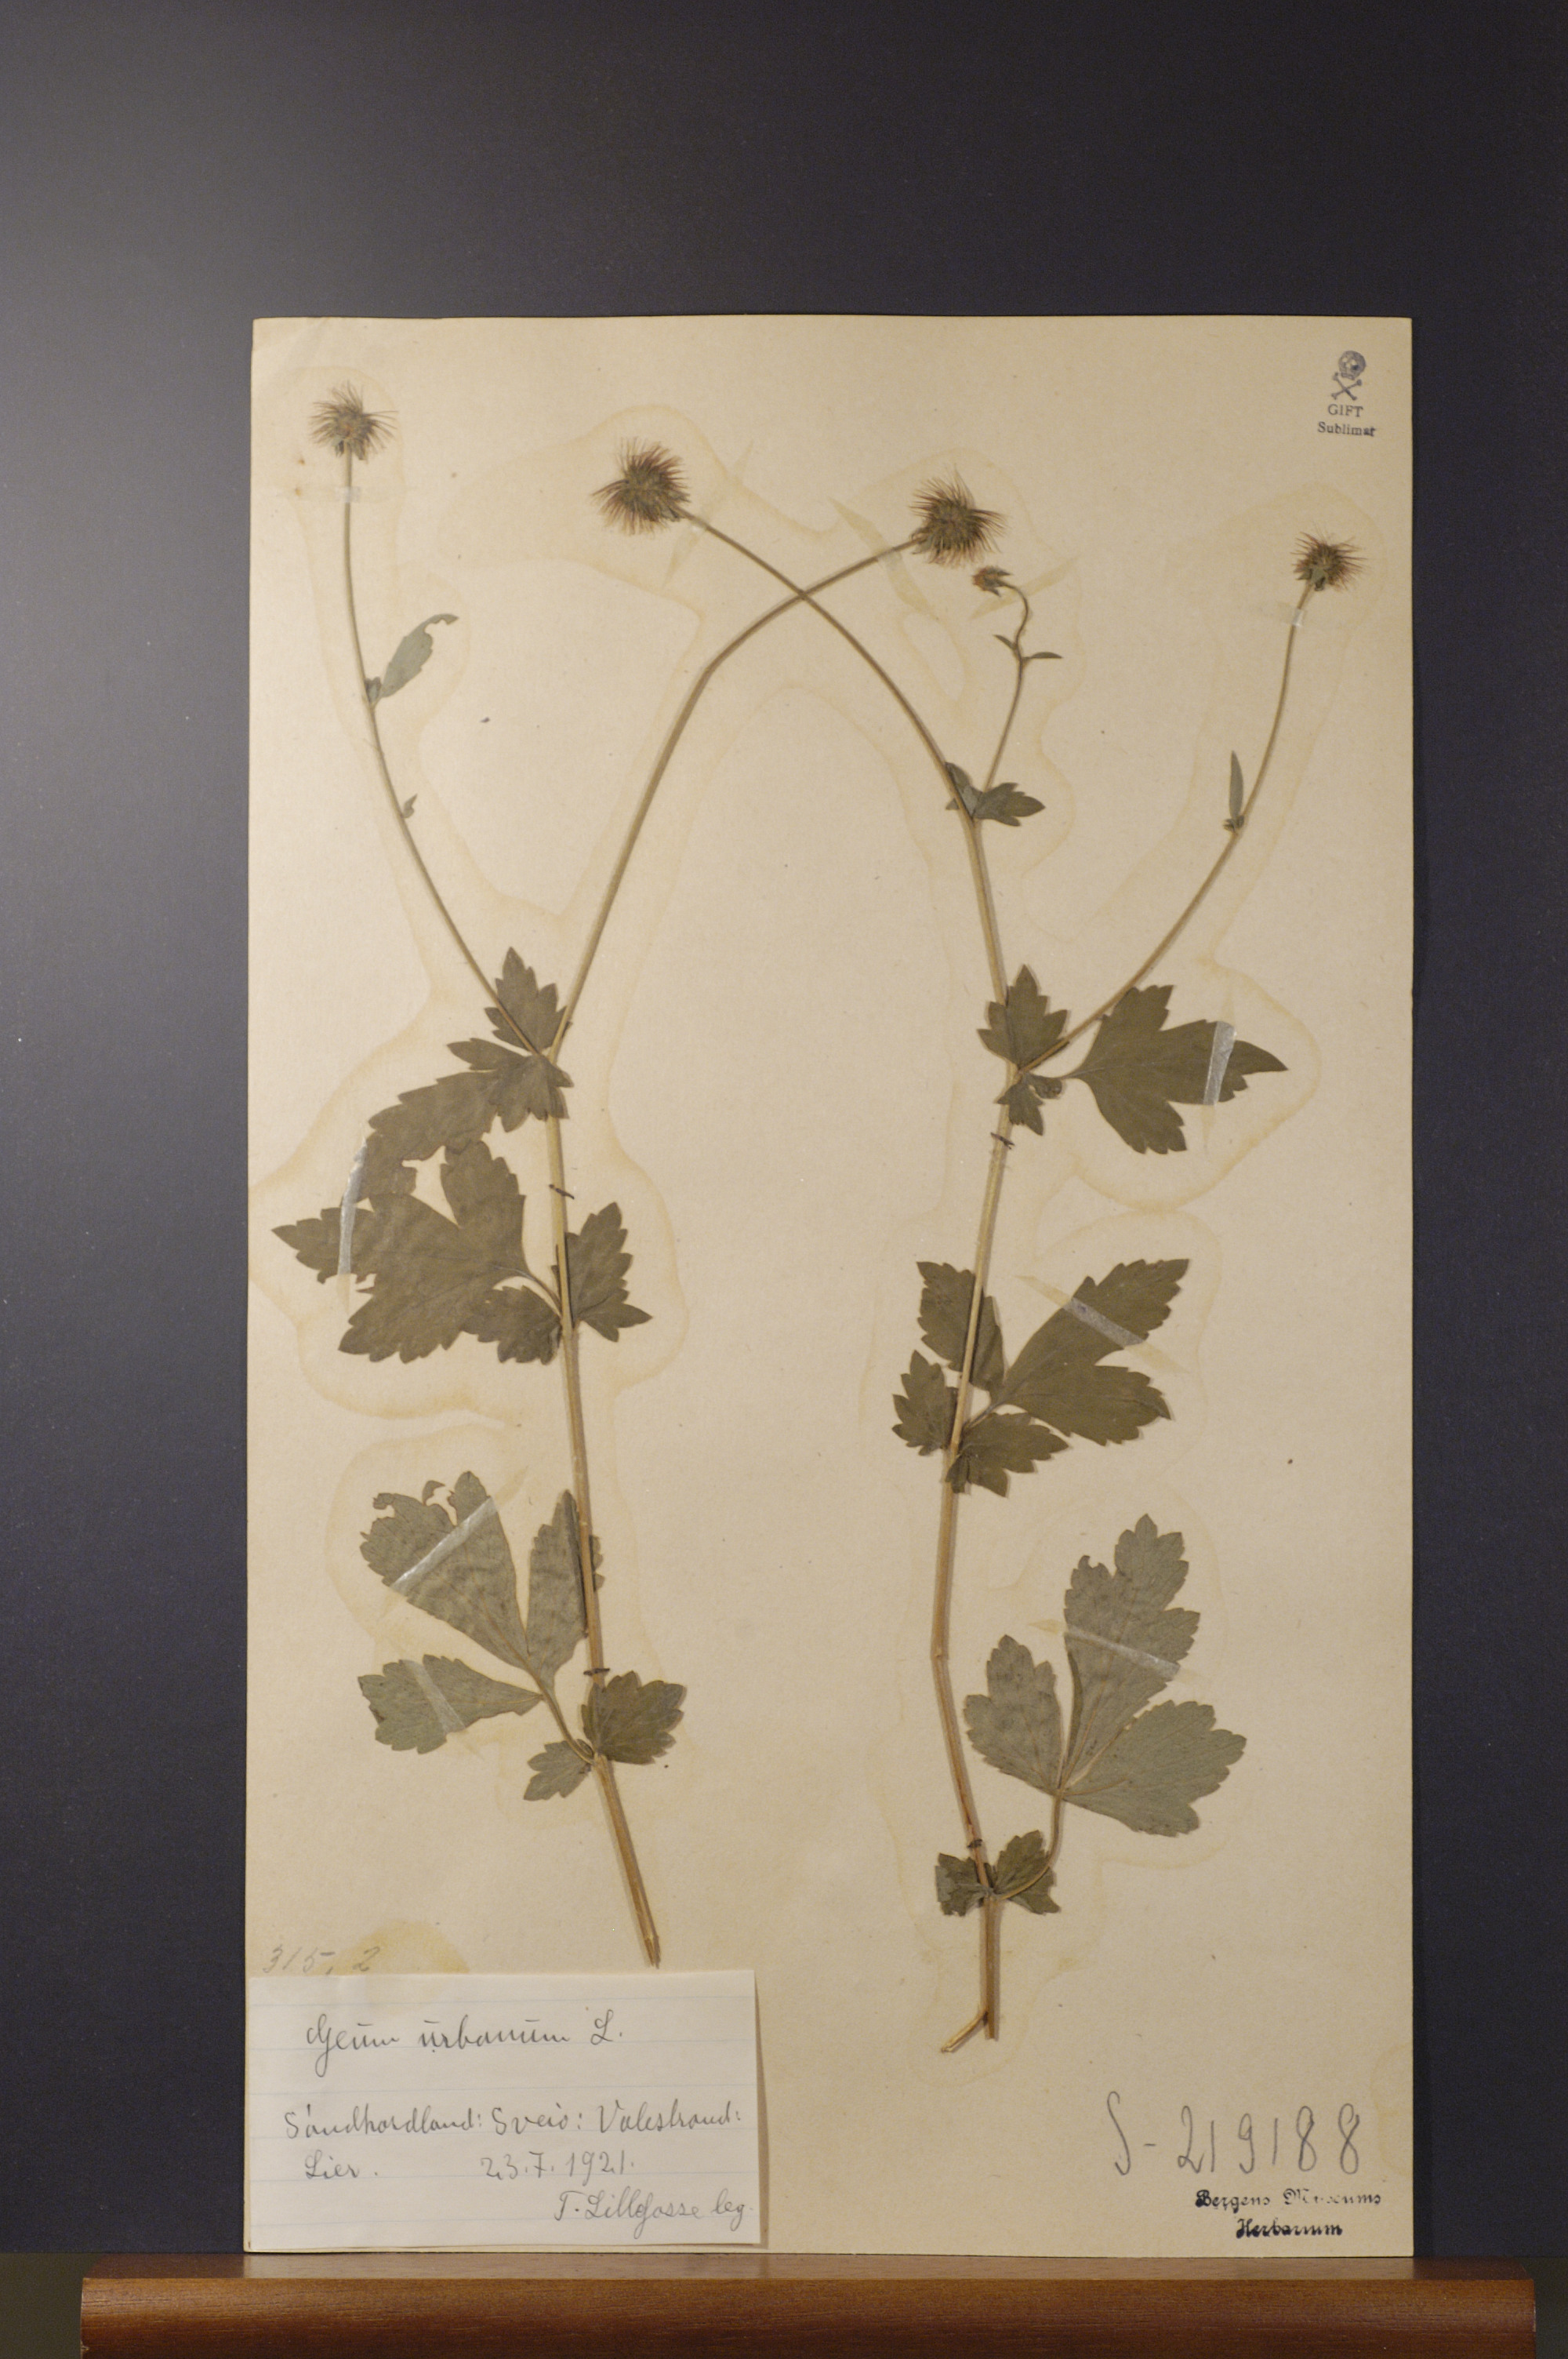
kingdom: Plantae
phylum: Tracheophyta
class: Magnoliopsida
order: Rosales
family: Rosaceae
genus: Geum
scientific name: Geum urbanum
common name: Wood avens
